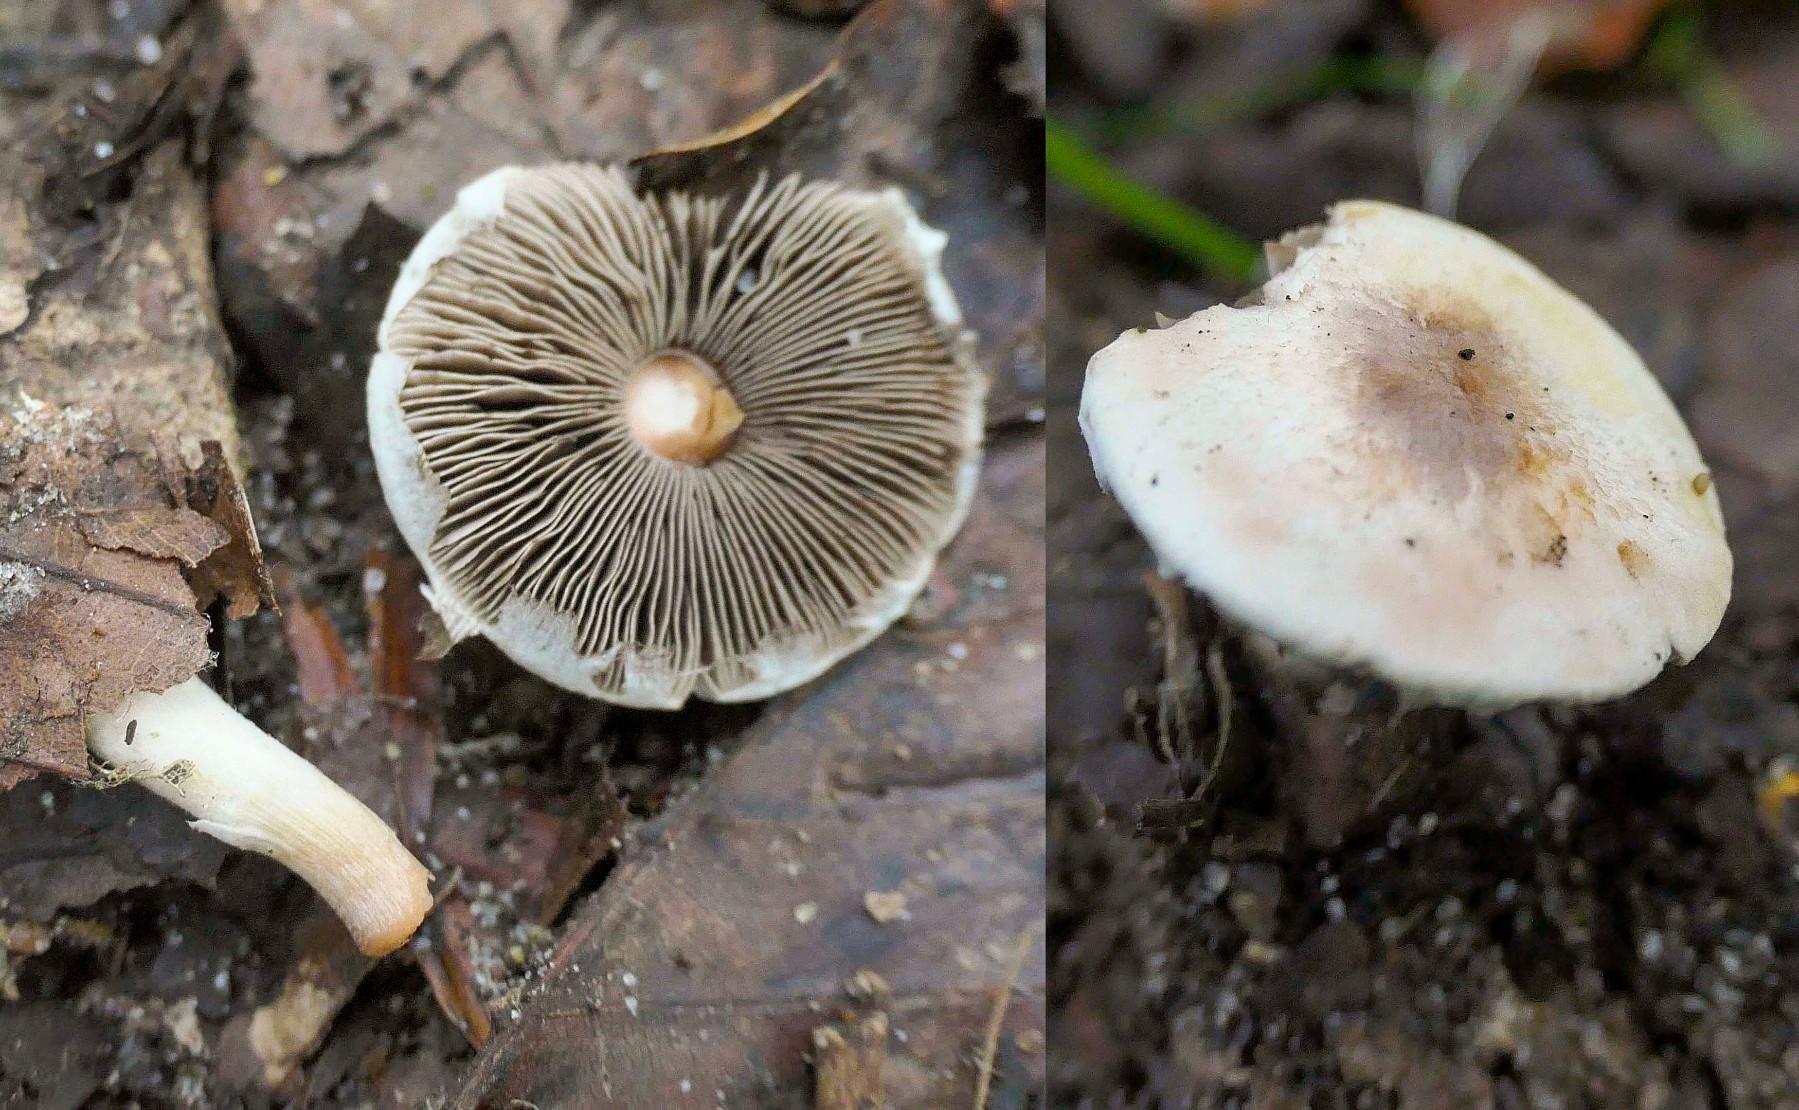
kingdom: Fungi
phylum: Basidiomycota
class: Agaricomycetes
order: Agaricales
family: Agaricaceae
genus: Agaricus
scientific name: Agaricus dulcidulus
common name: blegrød champignon
